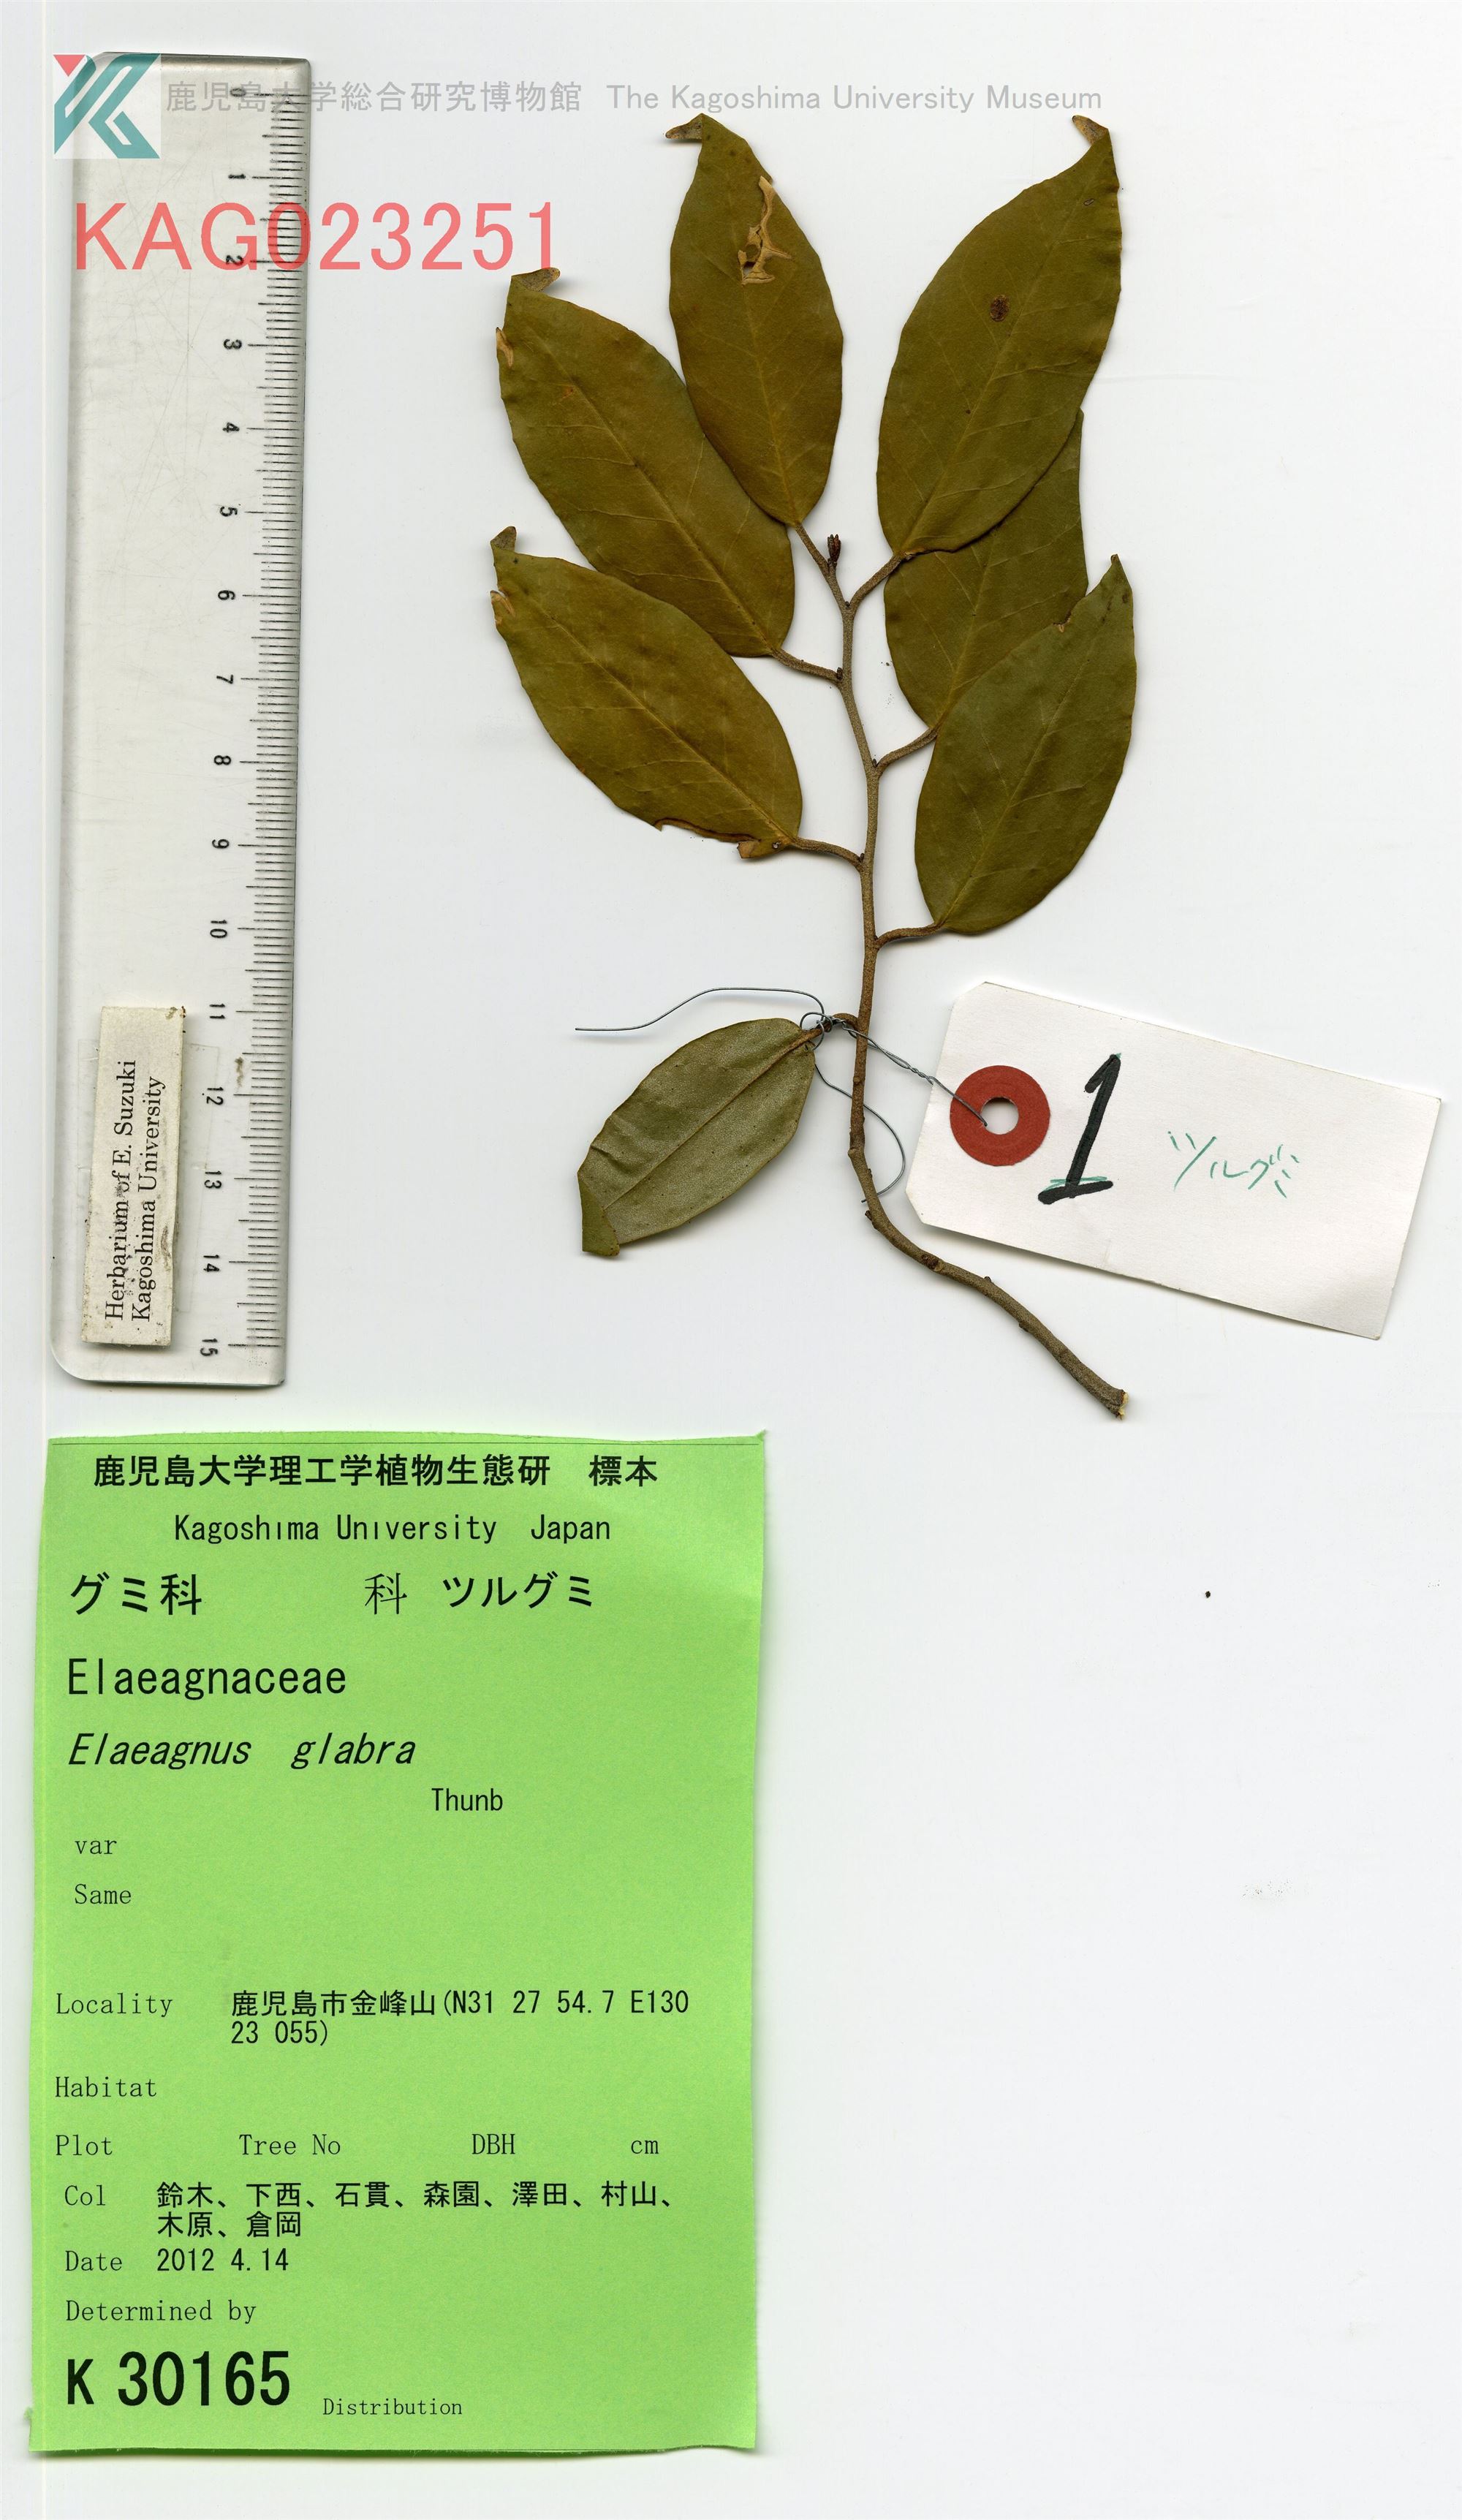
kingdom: Plantae
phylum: Tracheophyta
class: Magnoliopsida
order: Rosales
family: Elaeagnaceae
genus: Elaeagnus
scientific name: Elaeagnus glabra
